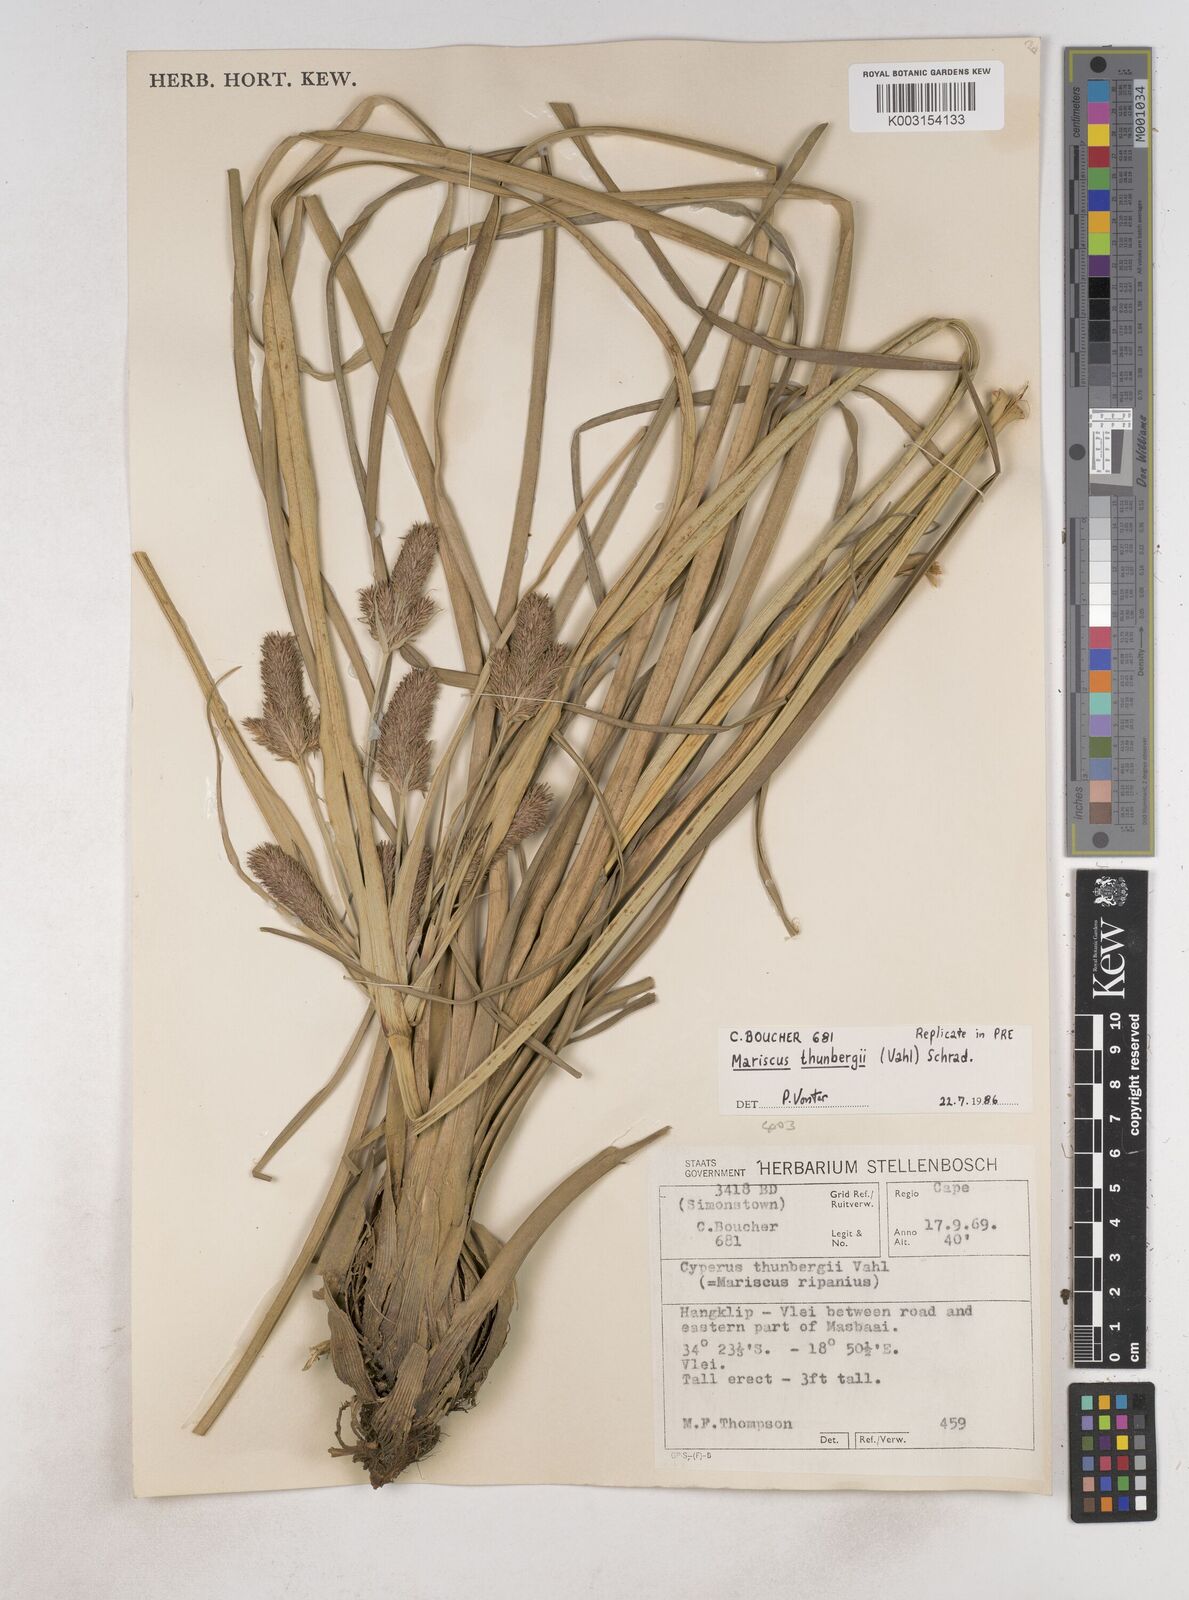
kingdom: Plantae
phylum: Tracheophyta
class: Liliopsida
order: Poales
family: Cyperaceae
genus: Cyperus
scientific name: Cyperus thunbergii
